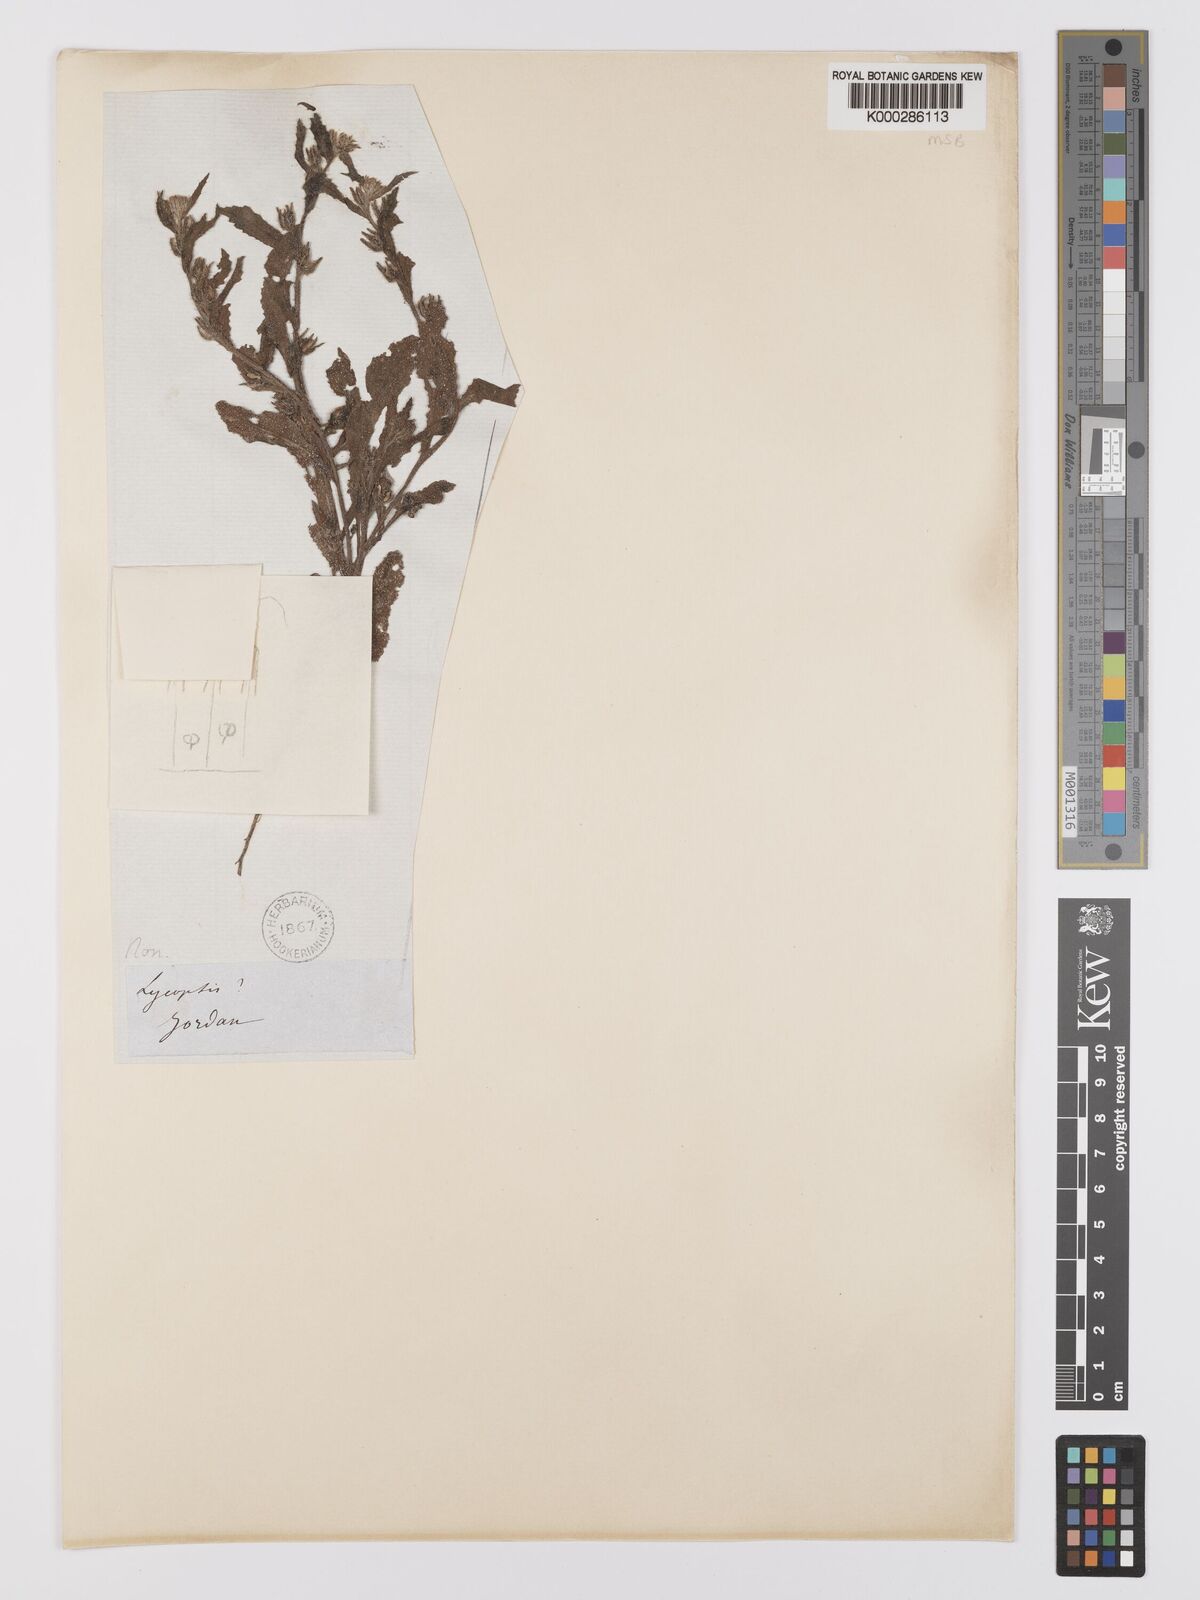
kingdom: Plantae
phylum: Tracheophyta
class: Magnoliopsida
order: Boraginales
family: Boraginaceae
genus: Anchusa
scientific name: Anchusa strigosa
